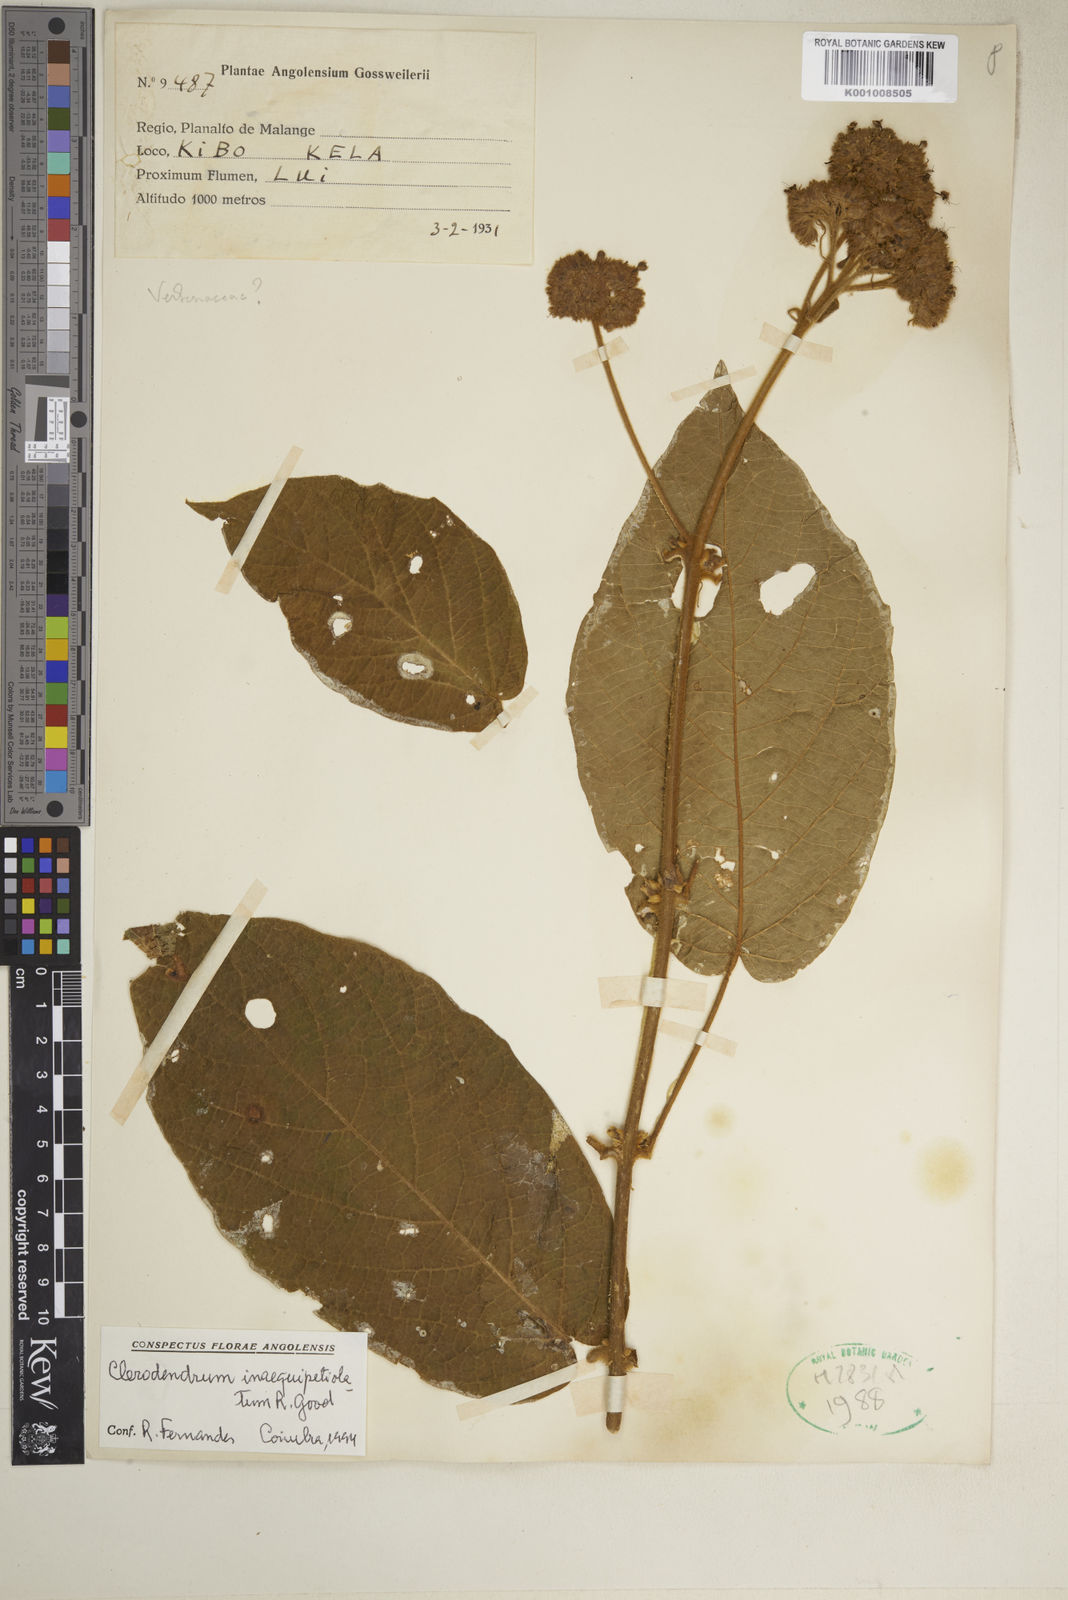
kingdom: Plantae
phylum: Tracheophyta
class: Magnoliopsida
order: Lamiales
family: Lamiaceae
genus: Clerodendrum
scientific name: Clerodendrum inaequipetiolatum
